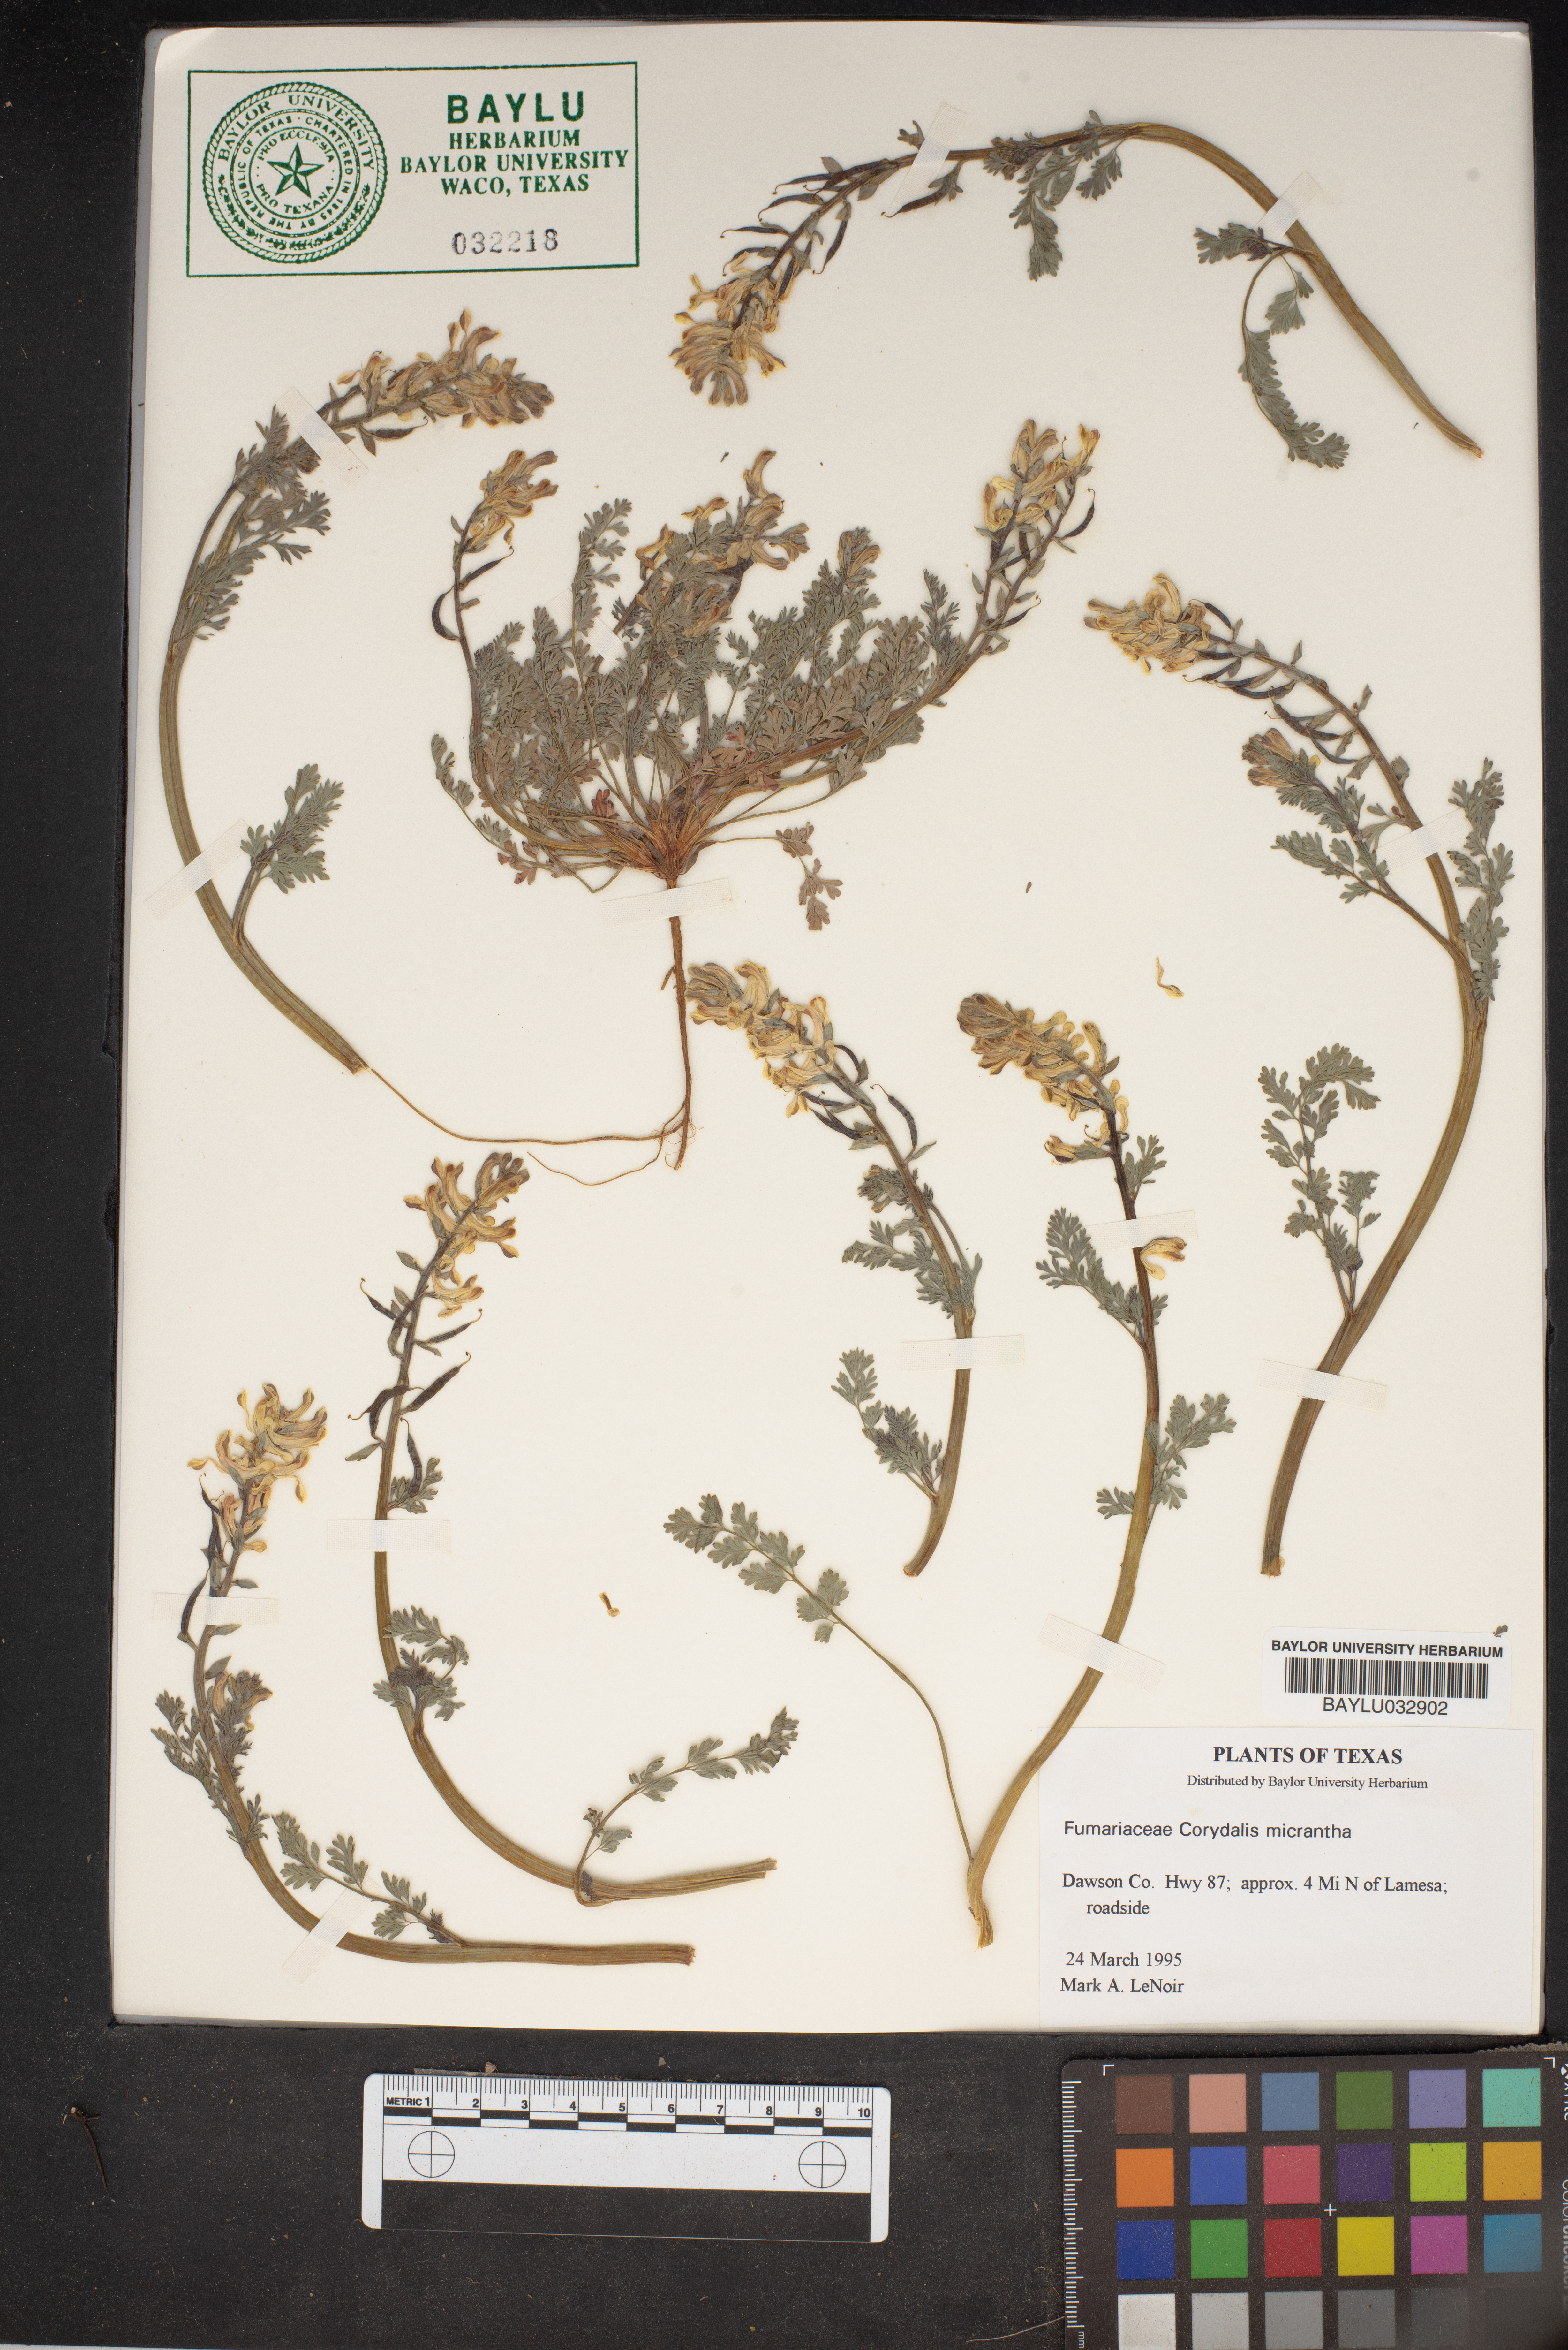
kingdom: Plantae
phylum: Tracheophyta
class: Magnoliopsida
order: Ranunculales
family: Papaveraceae
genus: Corydalis
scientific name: Corydalis micrantha
